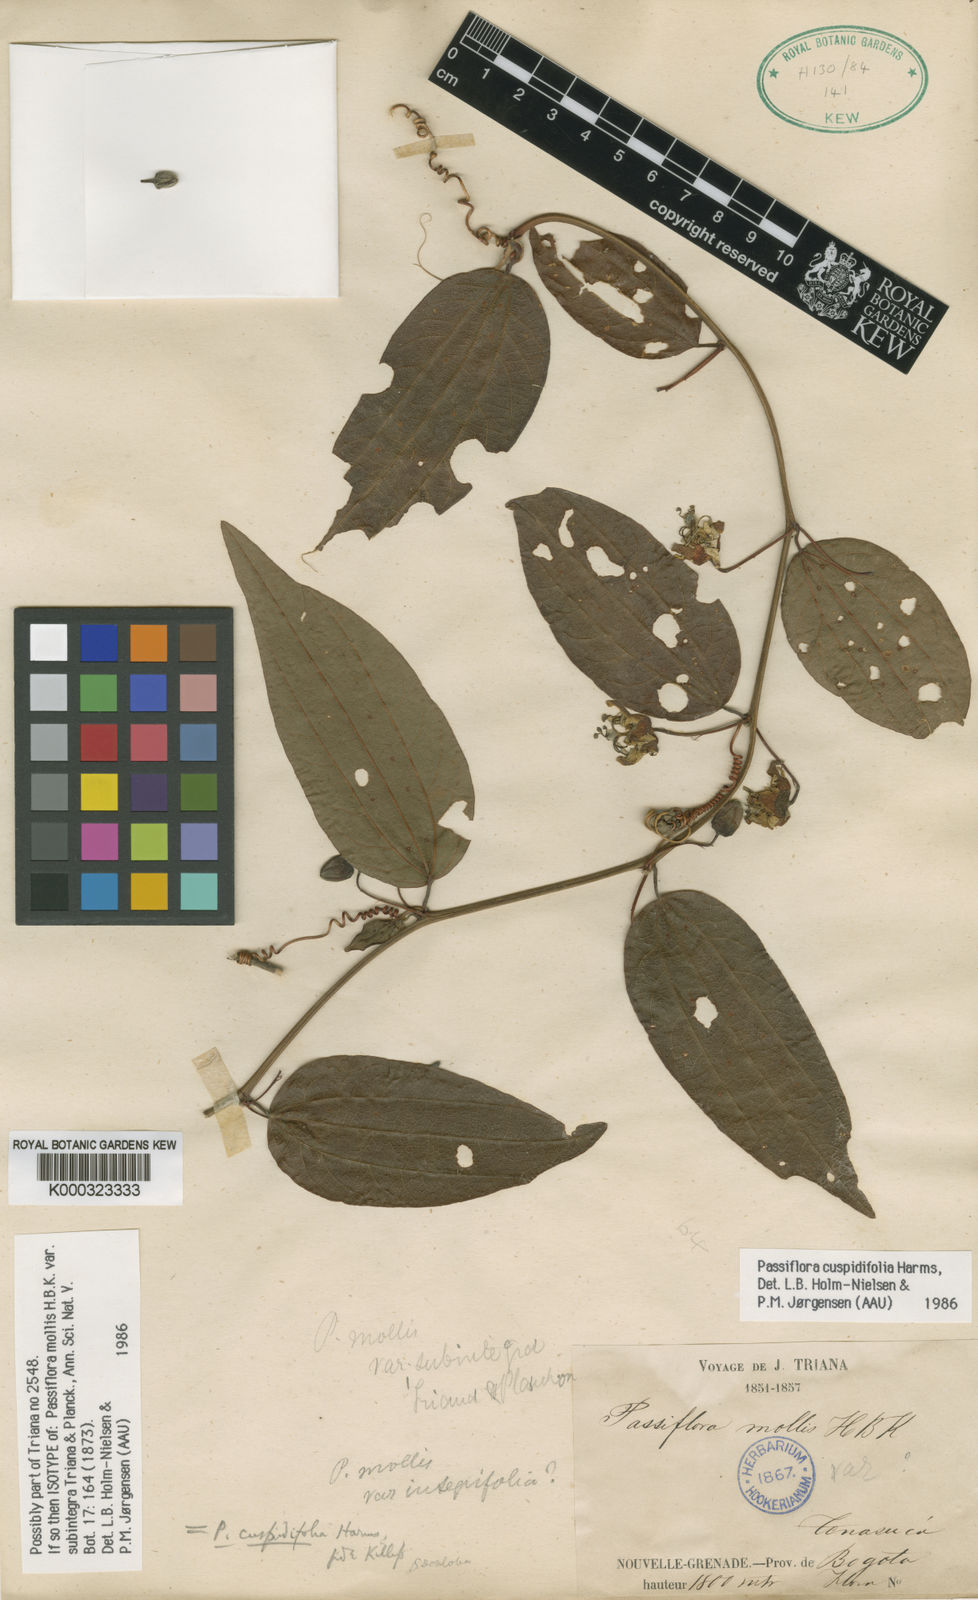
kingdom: Plantae
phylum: Tracheophyta
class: Magnoliopsida
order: Malpighiales
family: Passifloraceae
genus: Passiflora
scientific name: Passiflora cuspidifolia
